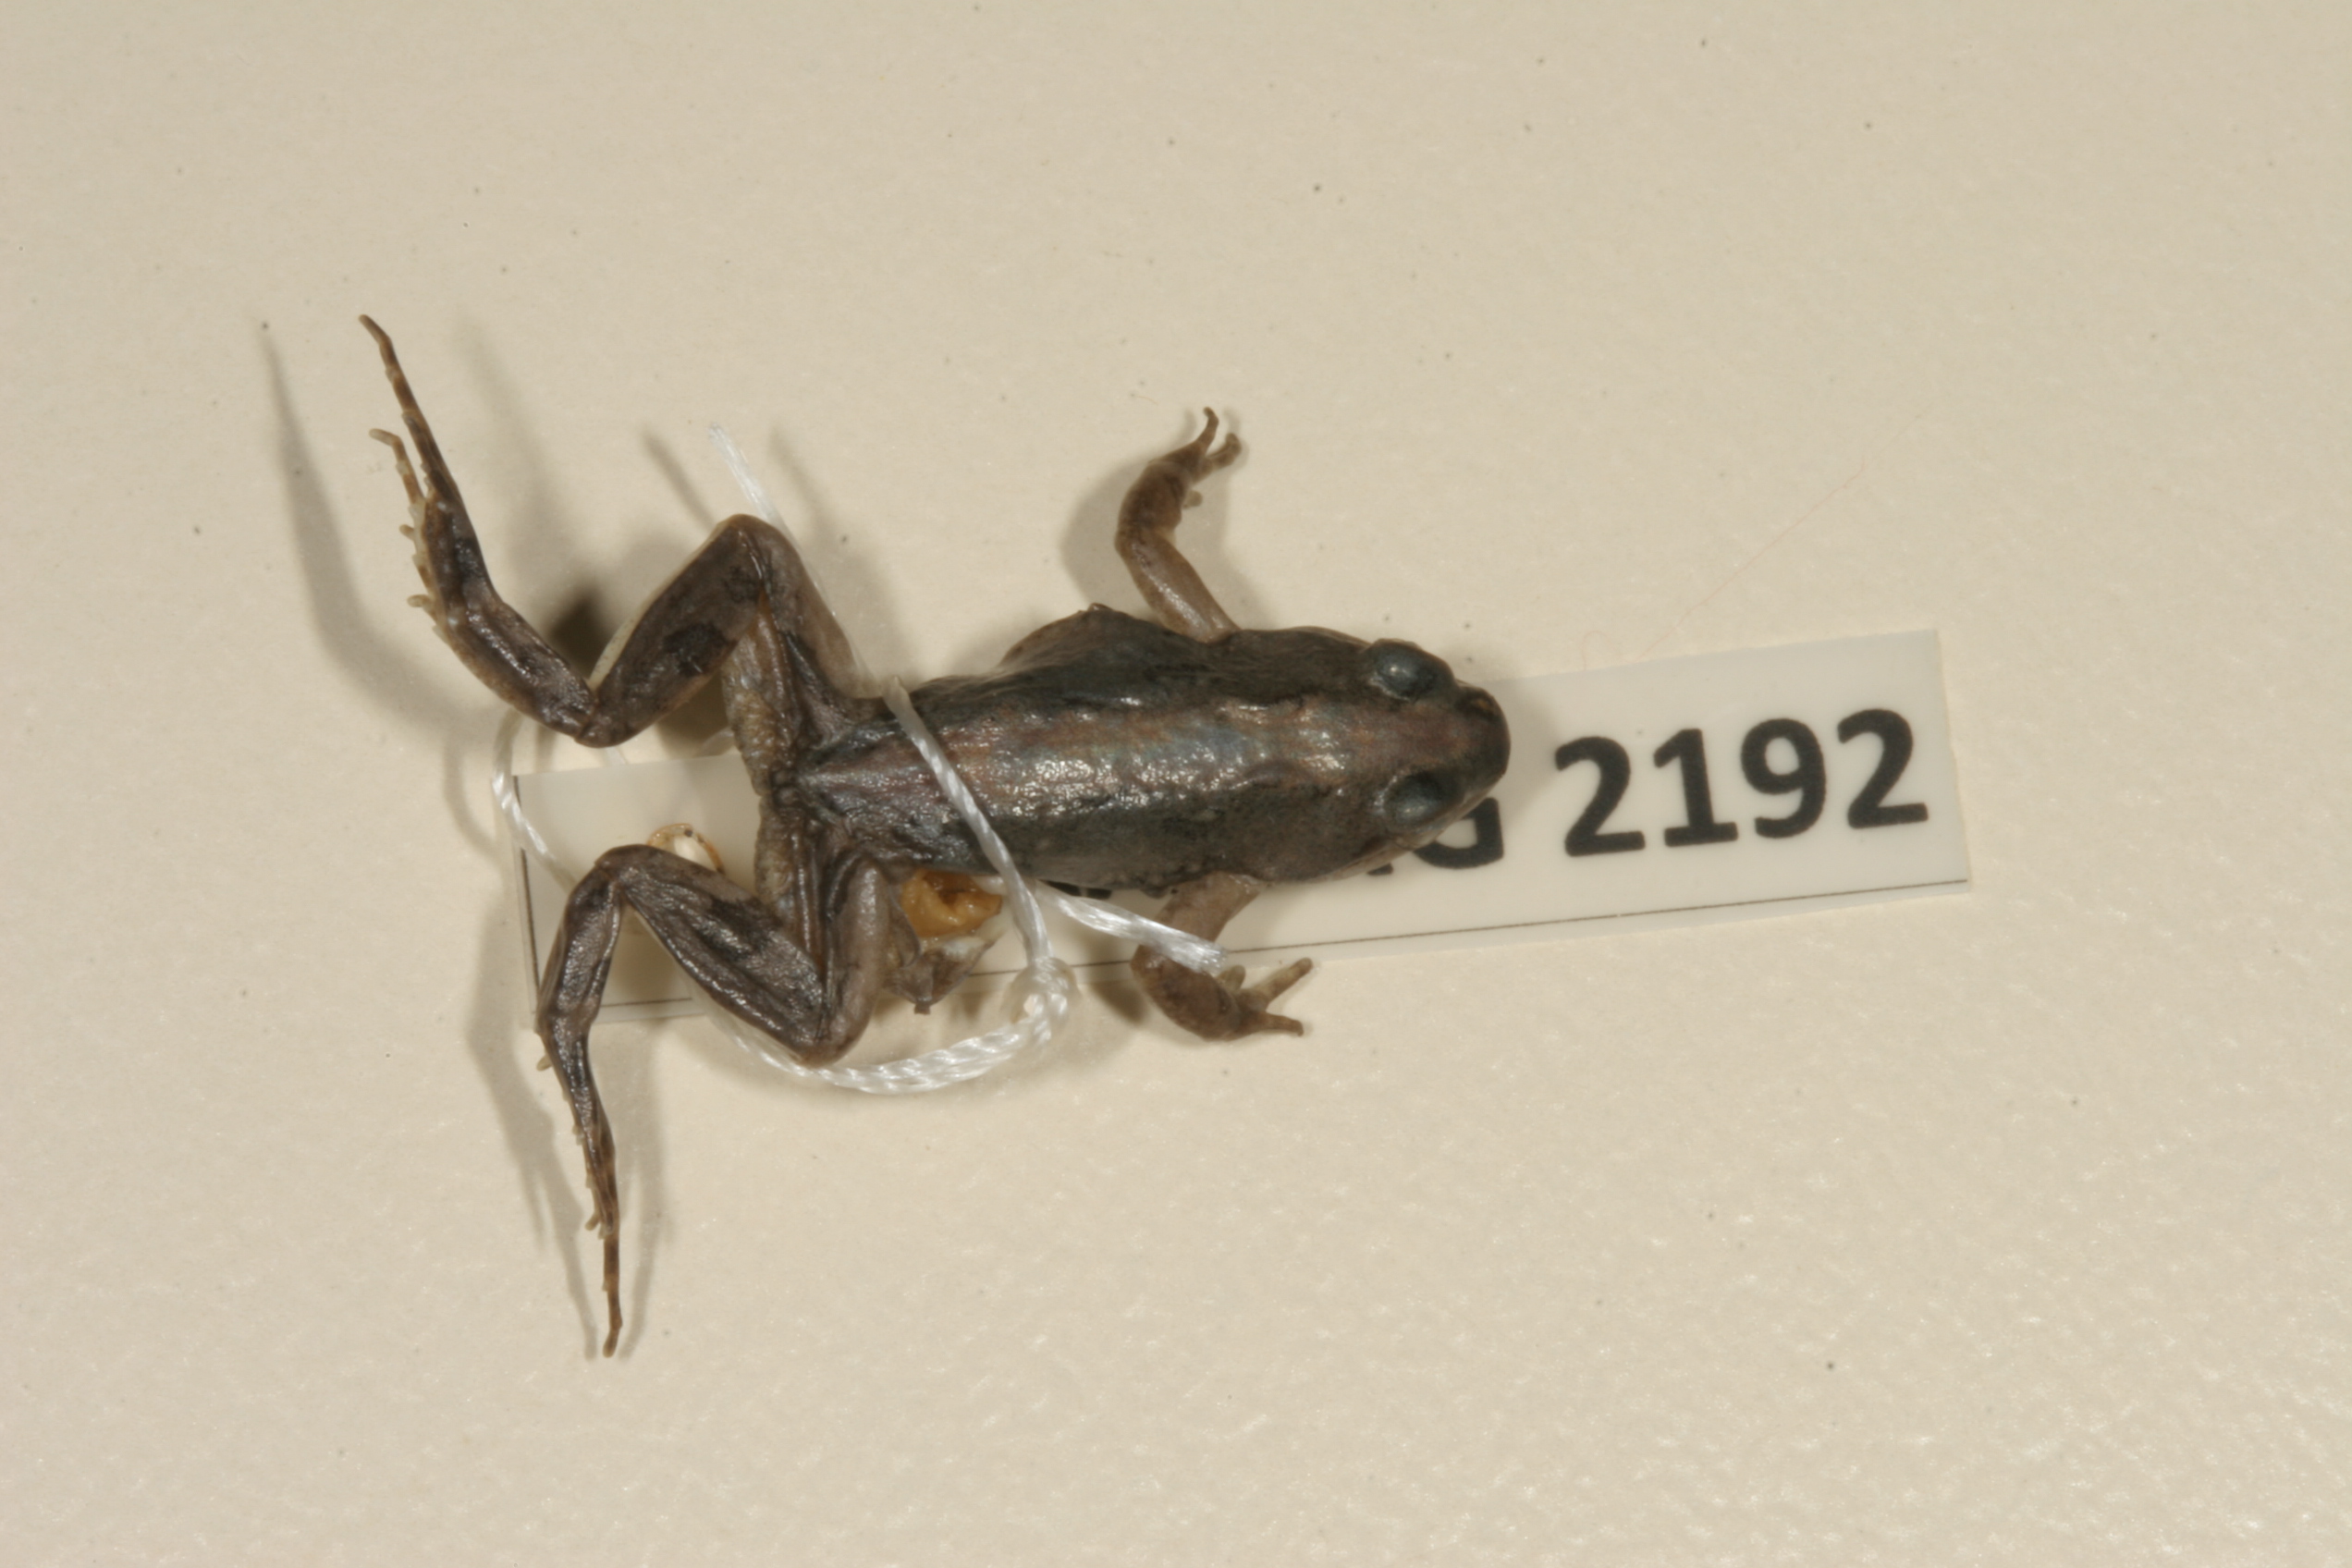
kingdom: Animalia
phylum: Chordata
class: Amphibia
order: Anura
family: Pyxicephalidae
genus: Cacosternum
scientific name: Cacosternum boettgeri
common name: Boettger's frog
